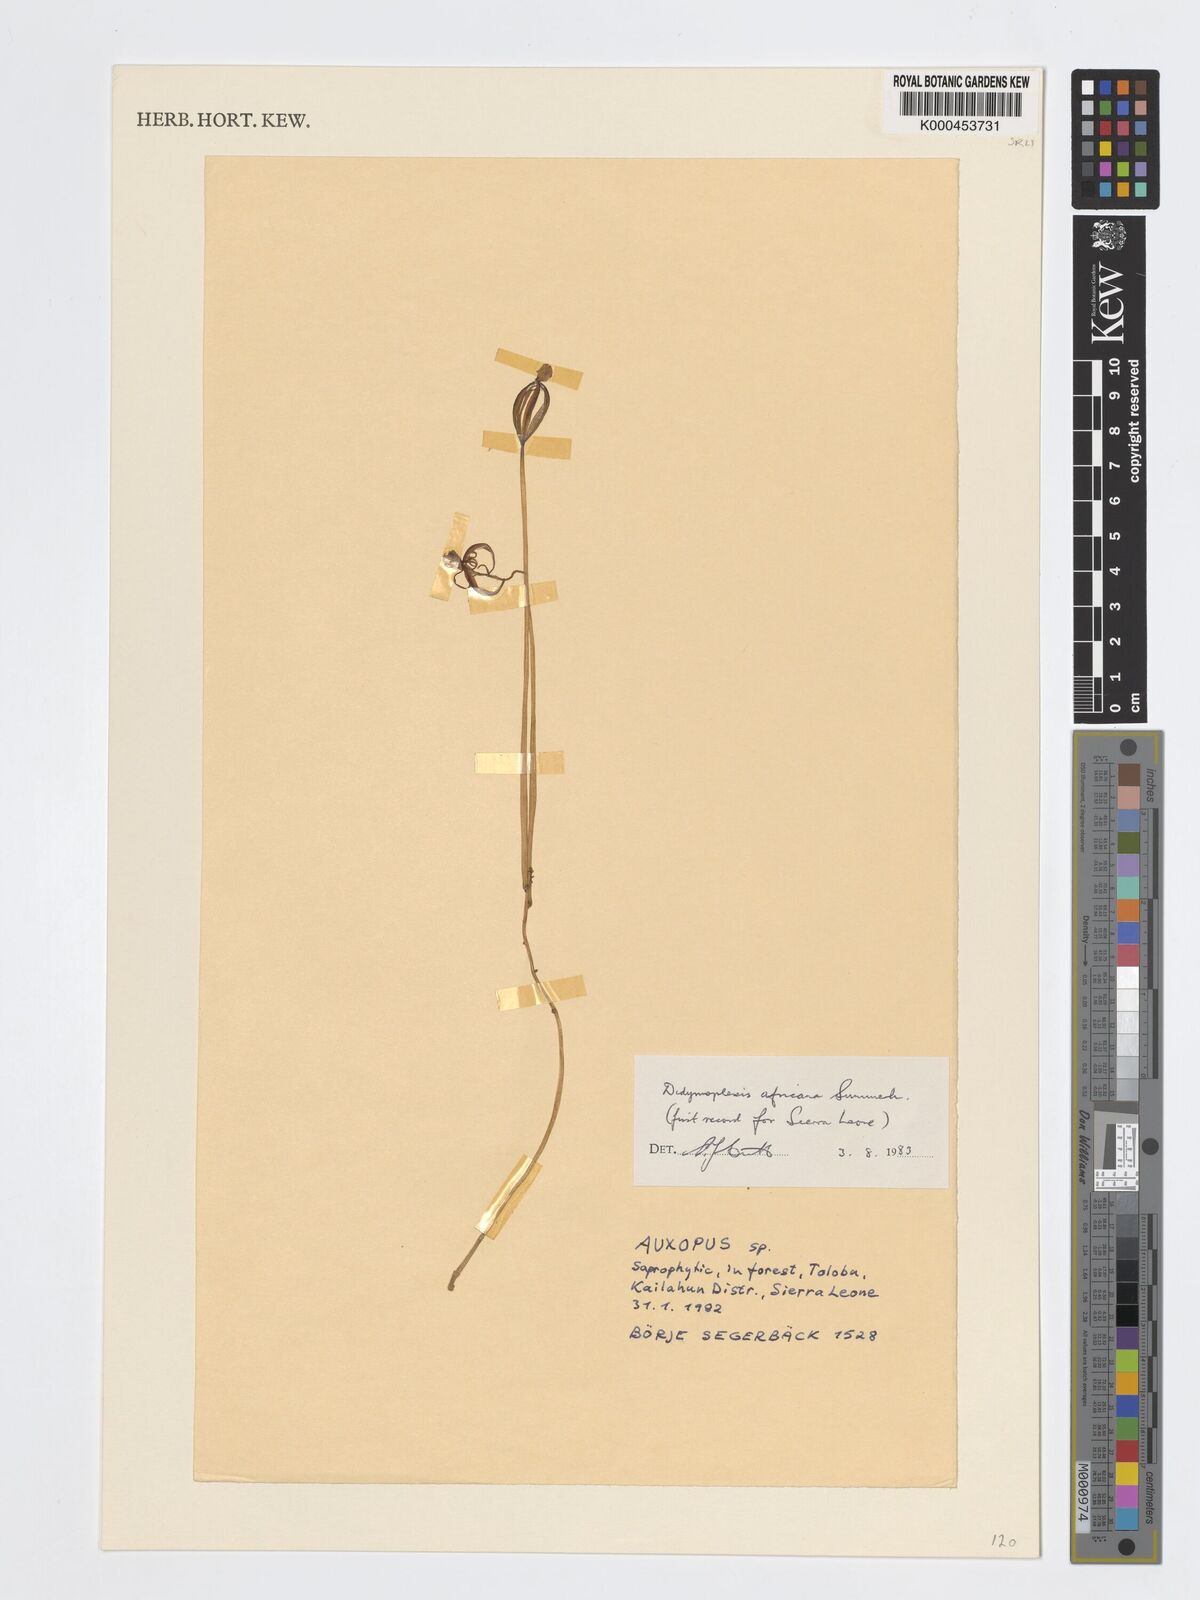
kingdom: Plantae
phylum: Tracheophyta
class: Liliopsida
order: Asparagales
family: Orchidaceae
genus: Didymoplexis
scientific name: Didymoplexis africana
